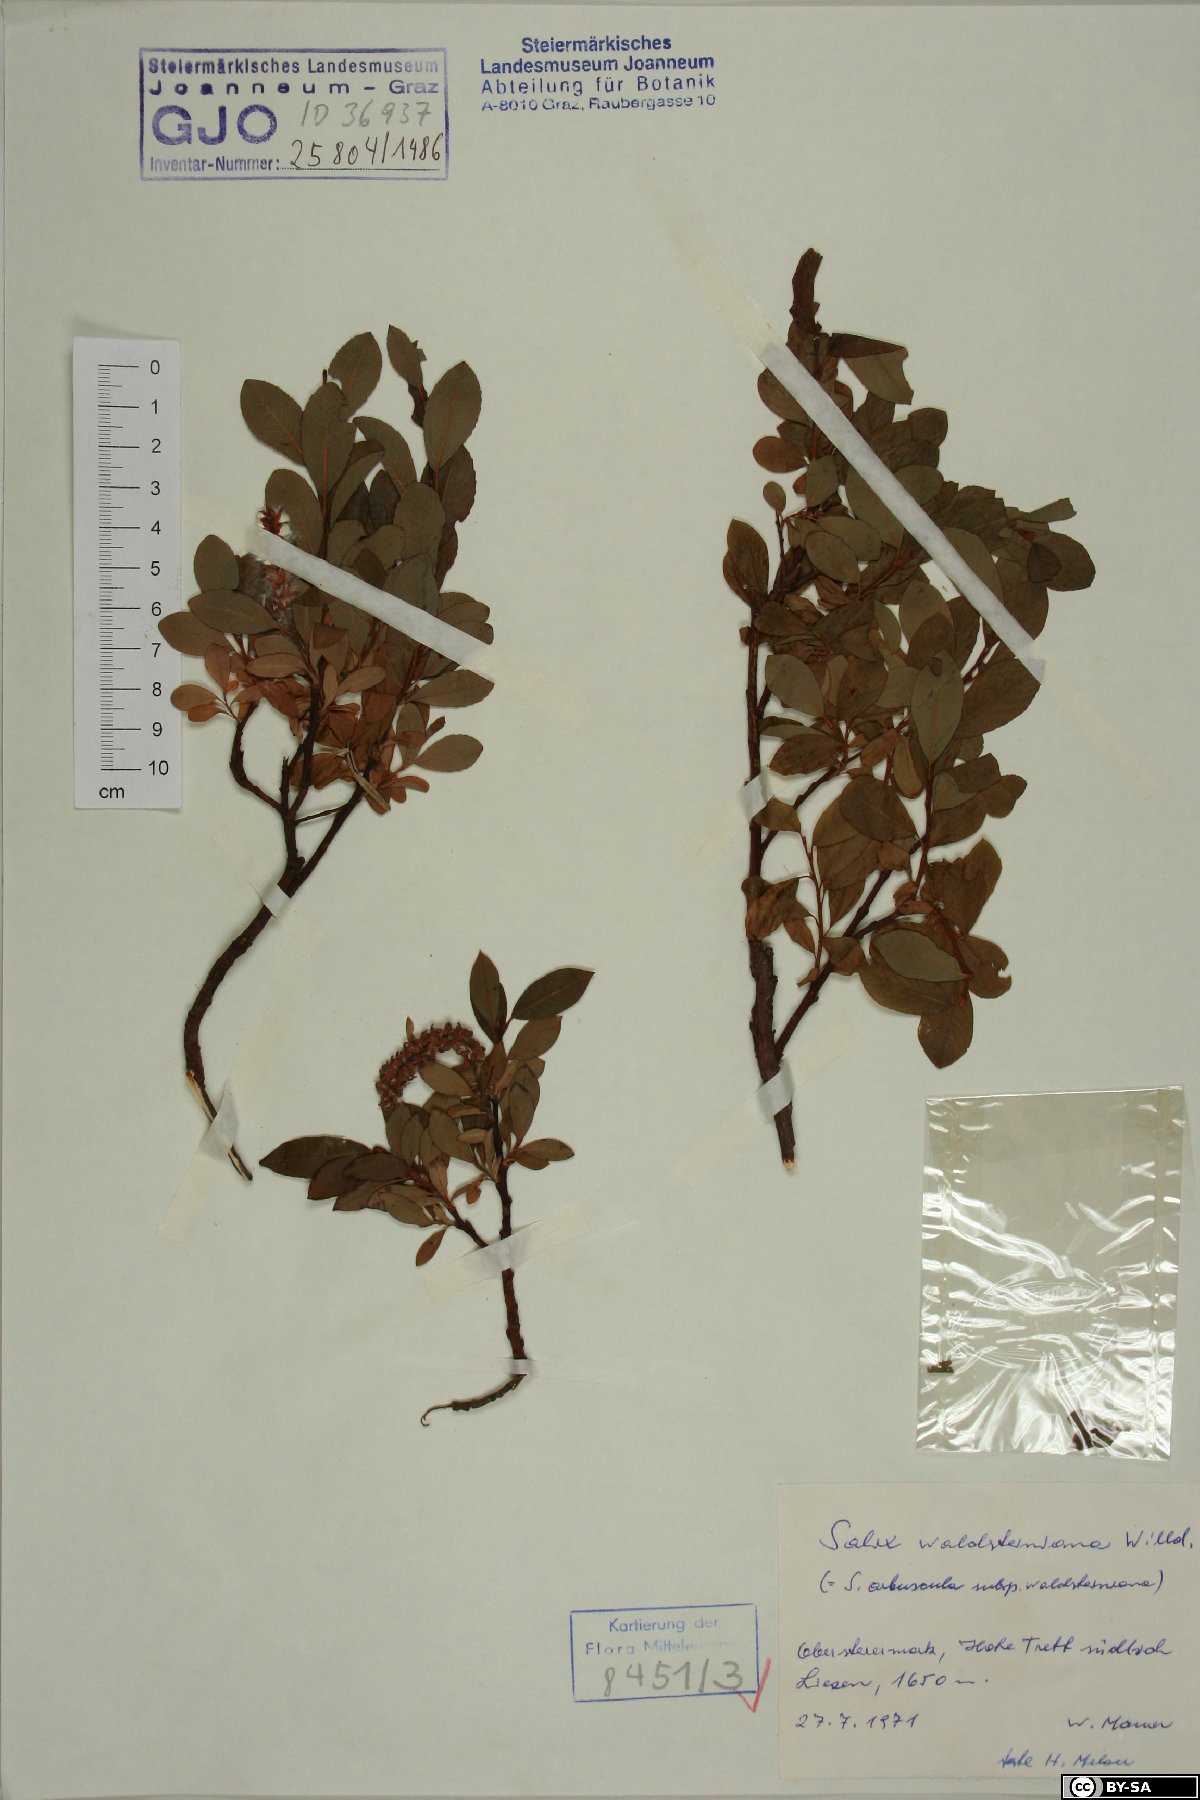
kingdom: Plantae
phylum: Tracheophyta
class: Magnoliopsida
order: Malpighiales
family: Salicaceae
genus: Salix
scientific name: Salix waldsteiniana
